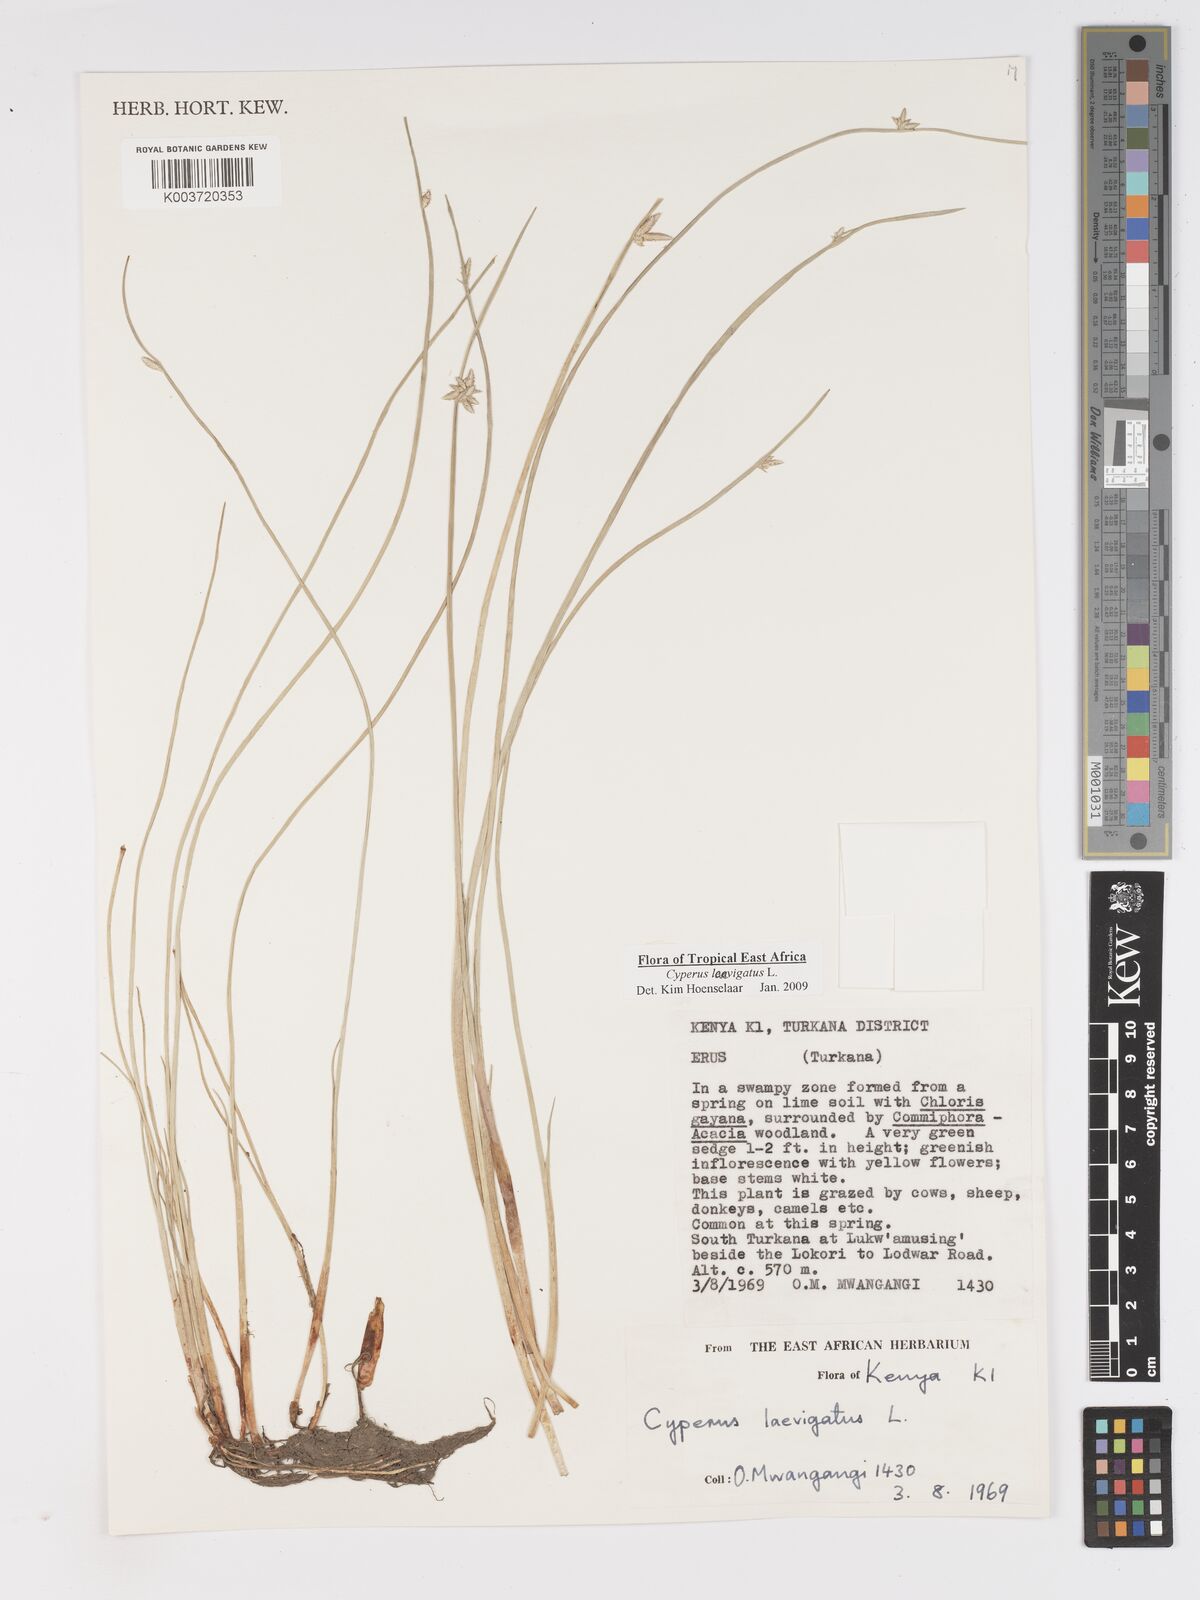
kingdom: Plantae
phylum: Tracheophyta
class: Liliopsida
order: Poales
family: Cyperaceae
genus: Cyperus
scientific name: Cyperus laevigatus
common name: Smooth flat sedge
